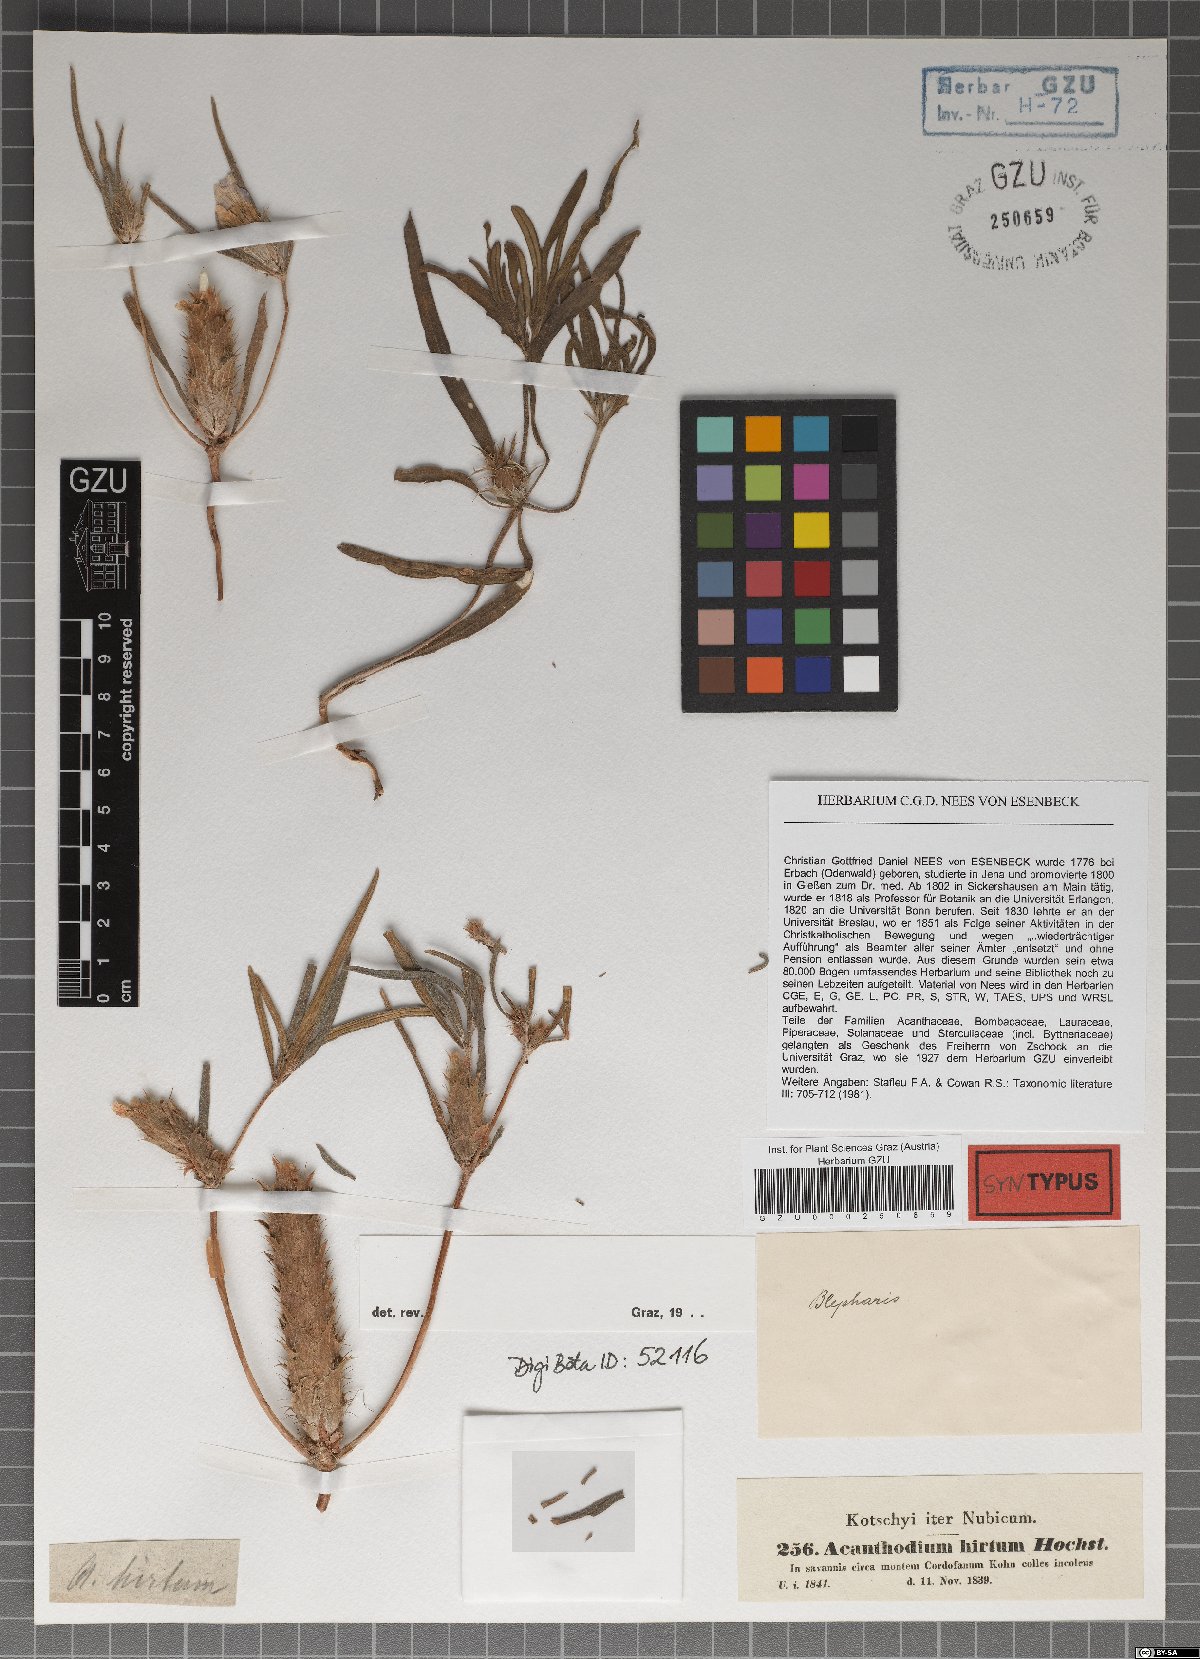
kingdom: Plantae
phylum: Tracheophyta
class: Magnoliopsida
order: Lamiales
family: Acanthaceae
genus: Blepharis
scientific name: Blepharis linariifolia
